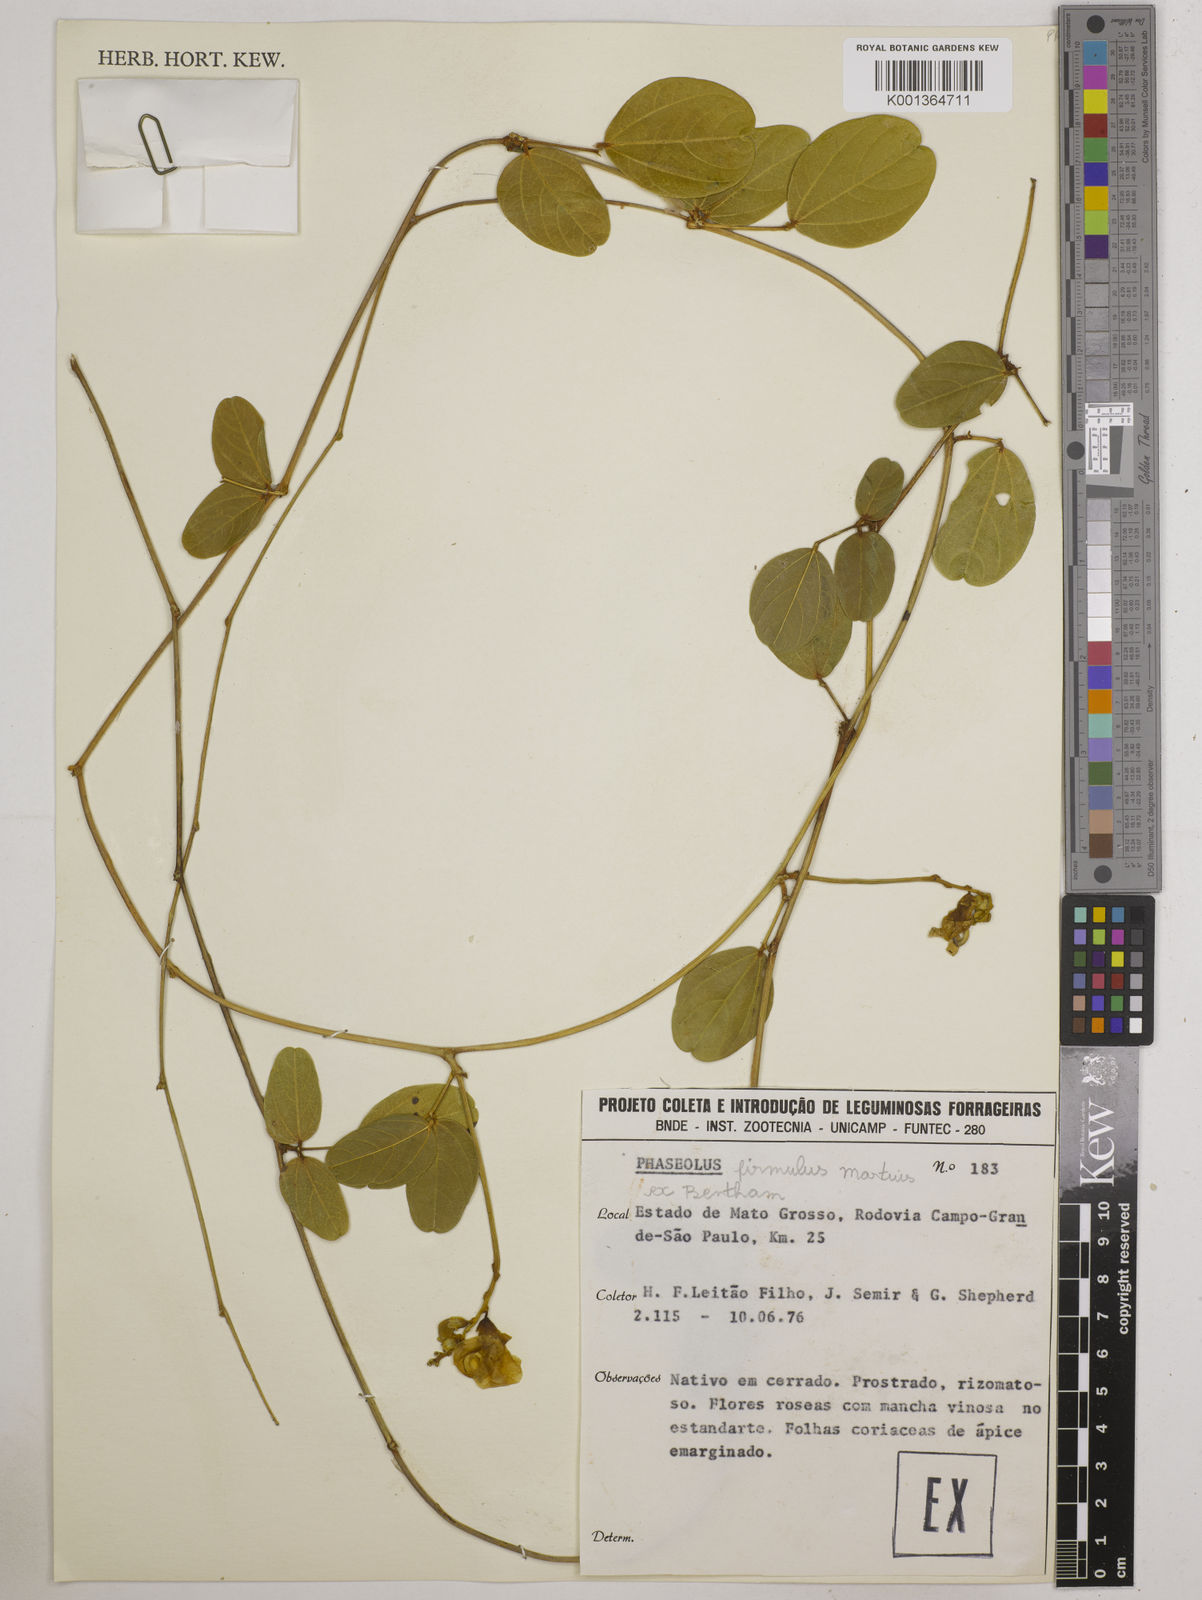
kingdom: Plantae
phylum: Tracheophyta
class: Magnoliopsida
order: Fabales
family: Fabaceae
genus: Ancistrotropis
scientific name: Ancistrotropis firmula
